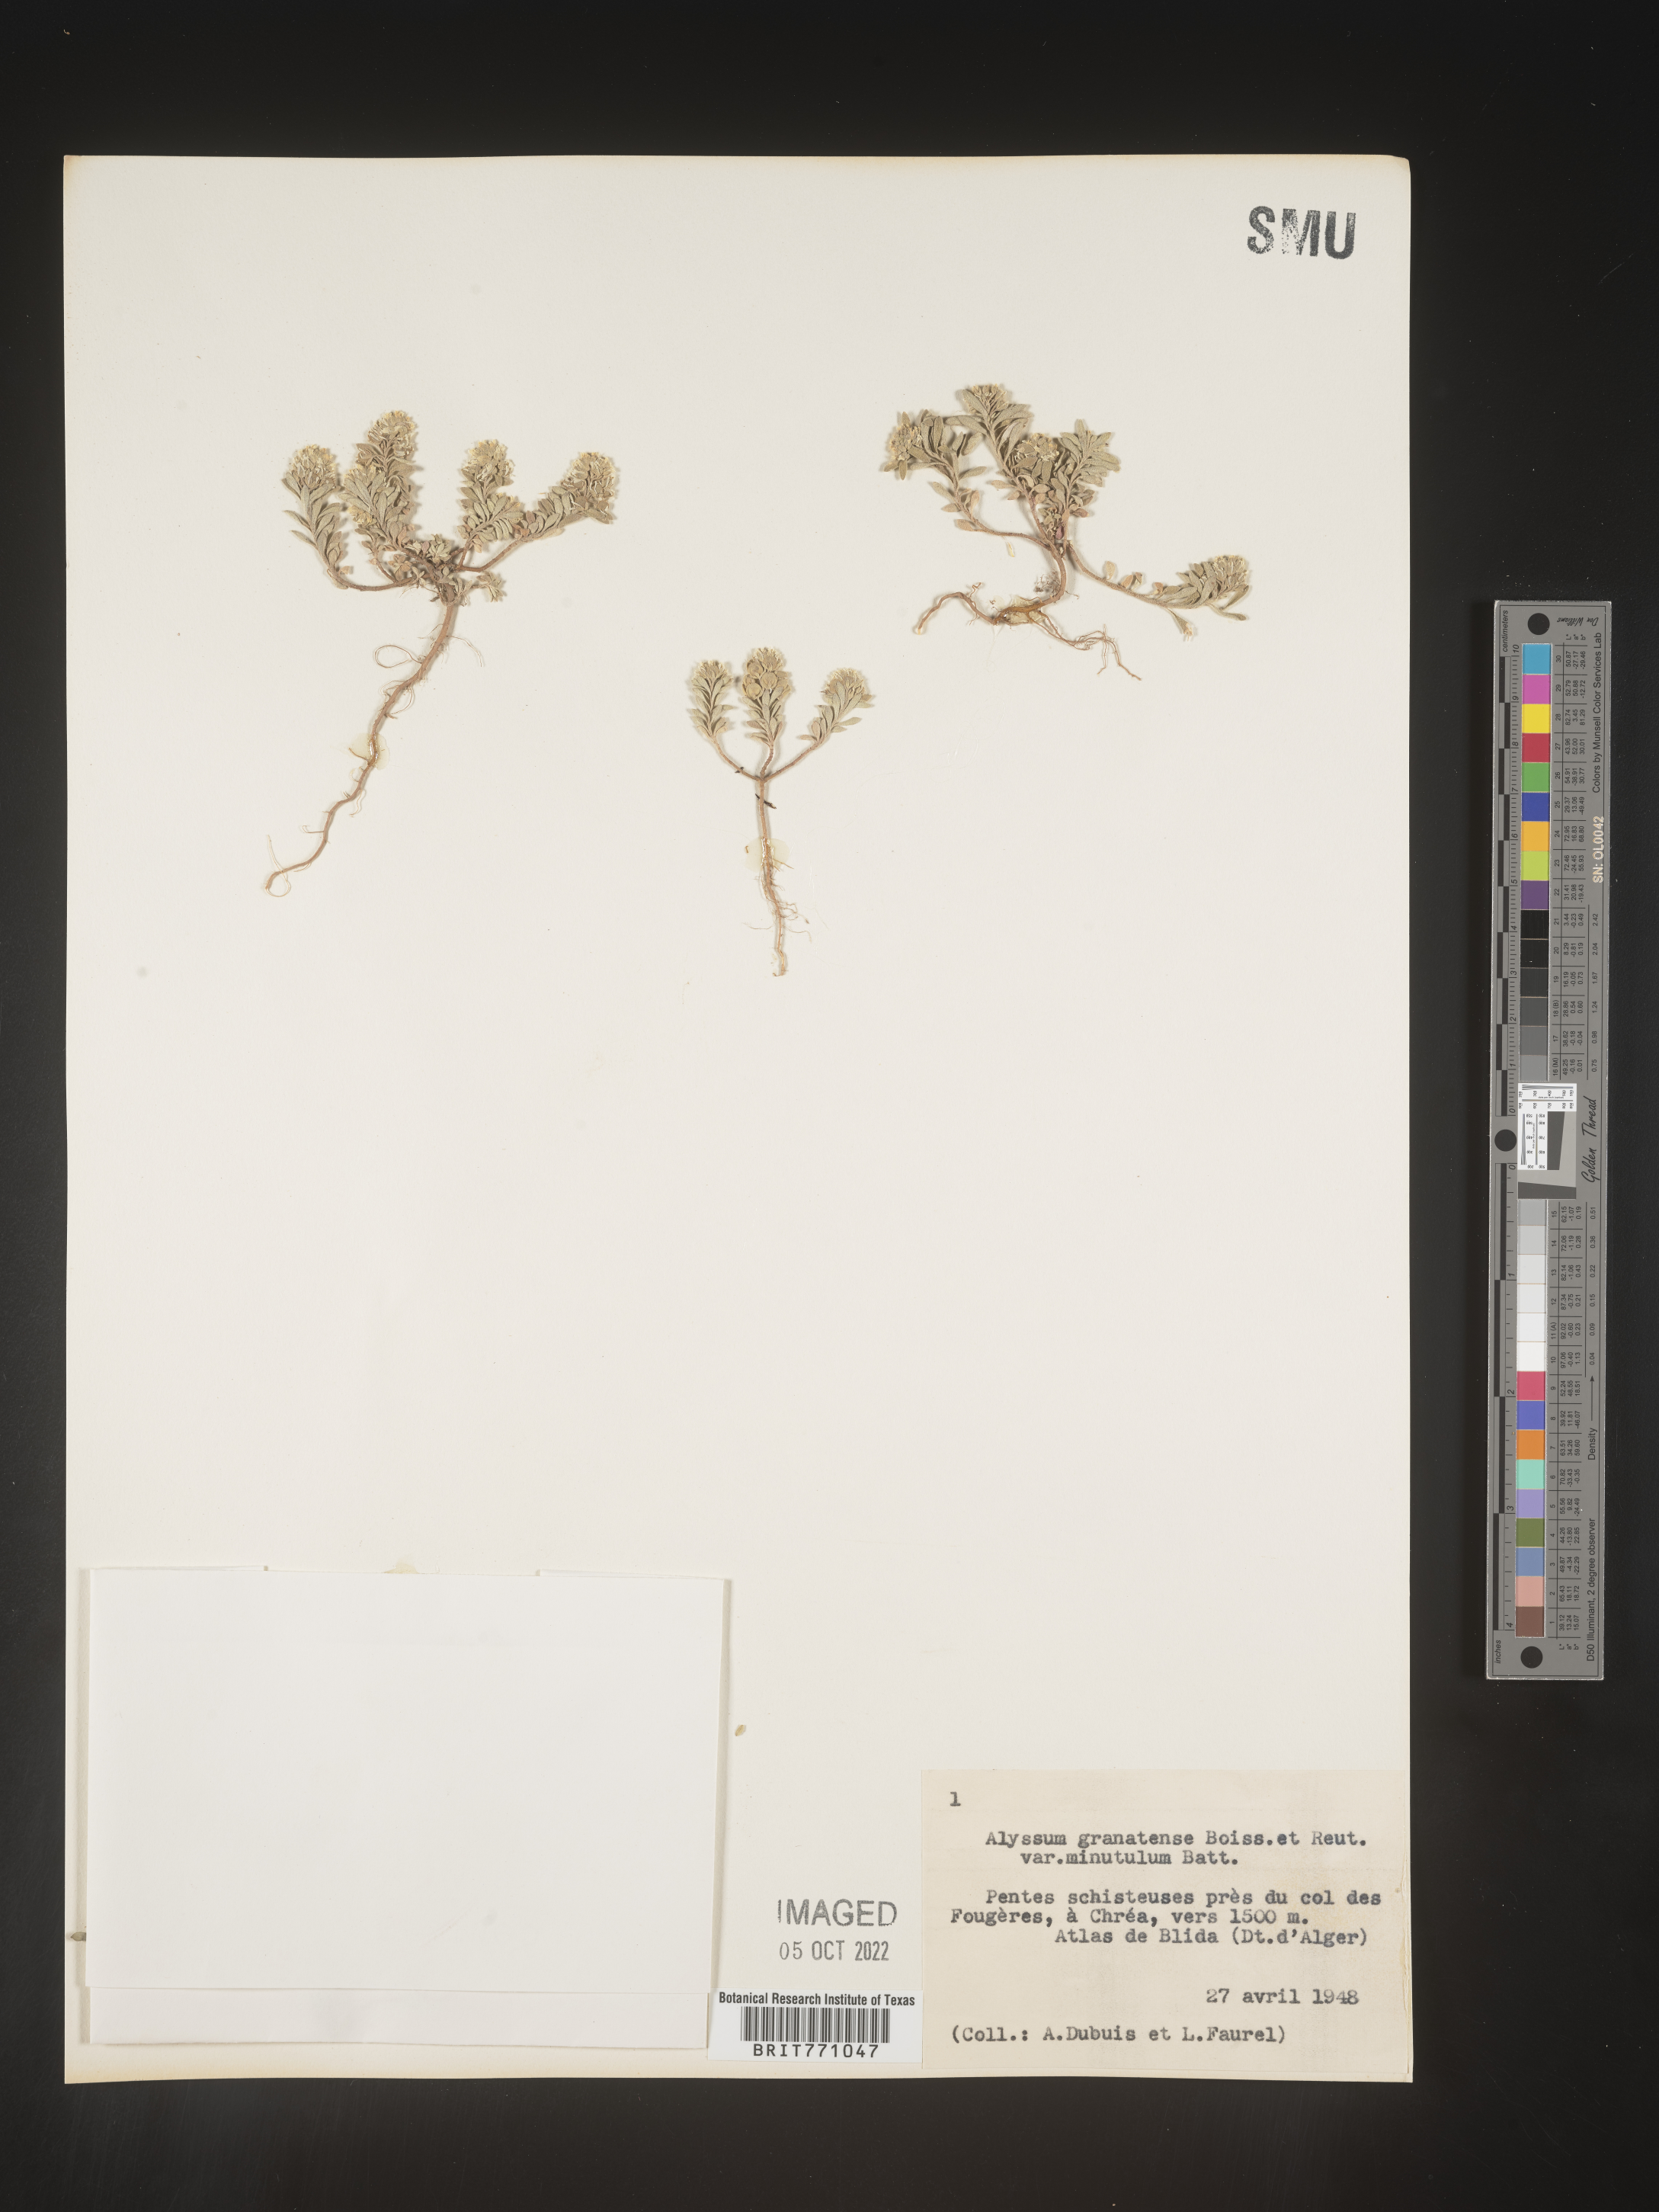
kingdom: Plantae
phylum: Tracheophyta
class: Magnoliopsida
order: Brassicales
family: Brassicaceae
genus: Alyssum
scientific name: Alyssum
